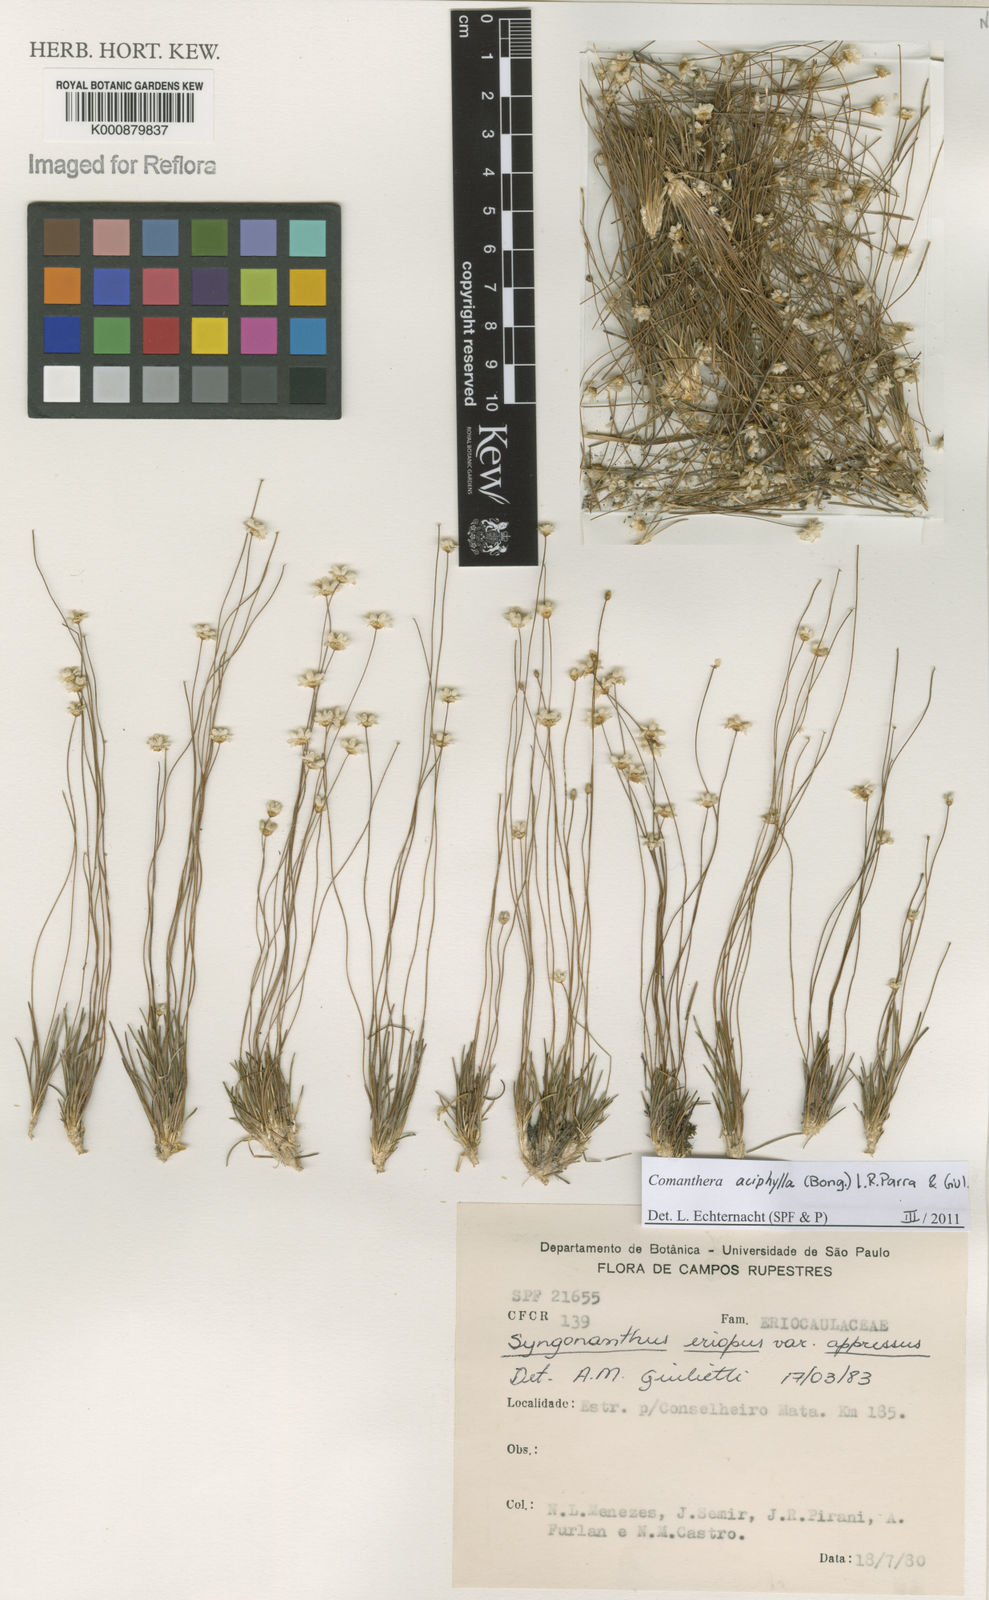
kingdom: Plantae
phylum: Tracheophyta
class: Liliopsida
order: Poales
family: Eriocaulaceae
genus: Comanthera
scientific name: Comanthera aciphylla
